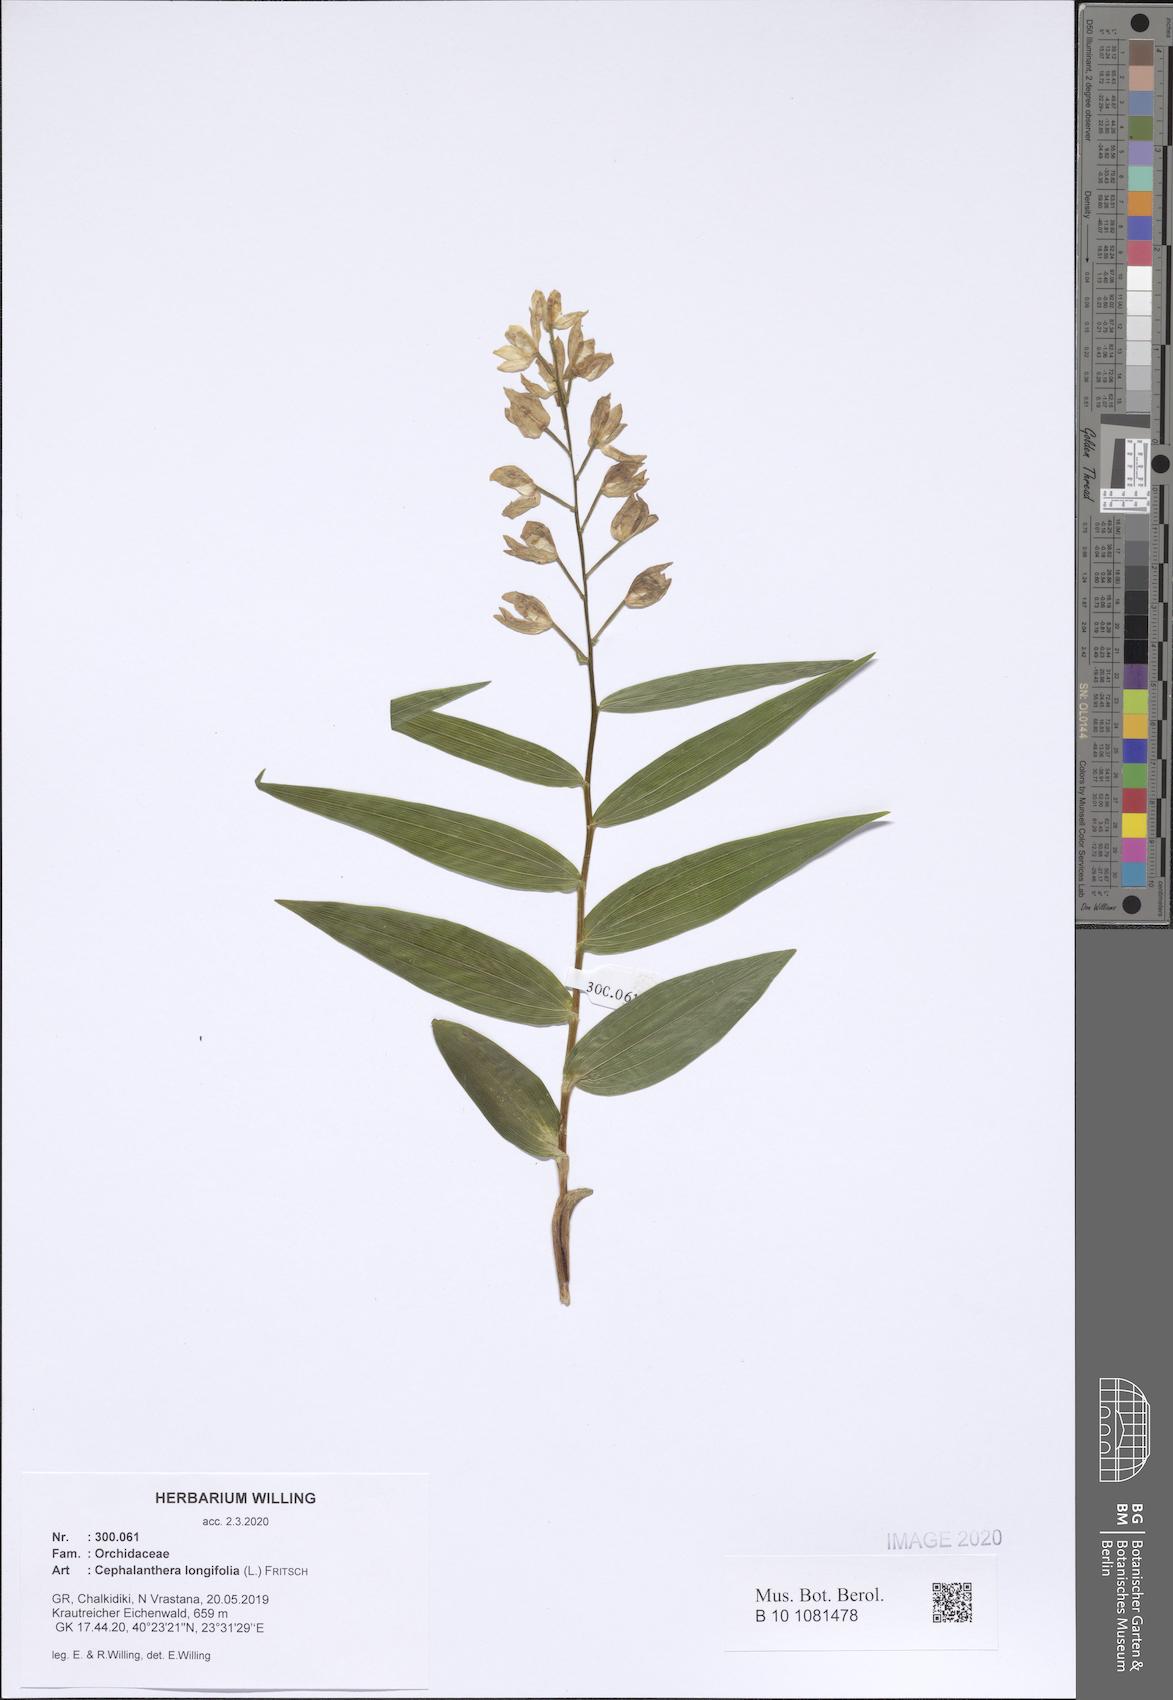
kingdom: Plantae
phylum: Tracheophyta
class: Liliopsida
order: Asparagales
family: Orchidaceae
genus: Cephalanthera
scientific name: Cephalanthera longifolia
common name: Narrow-leaved helleborine
